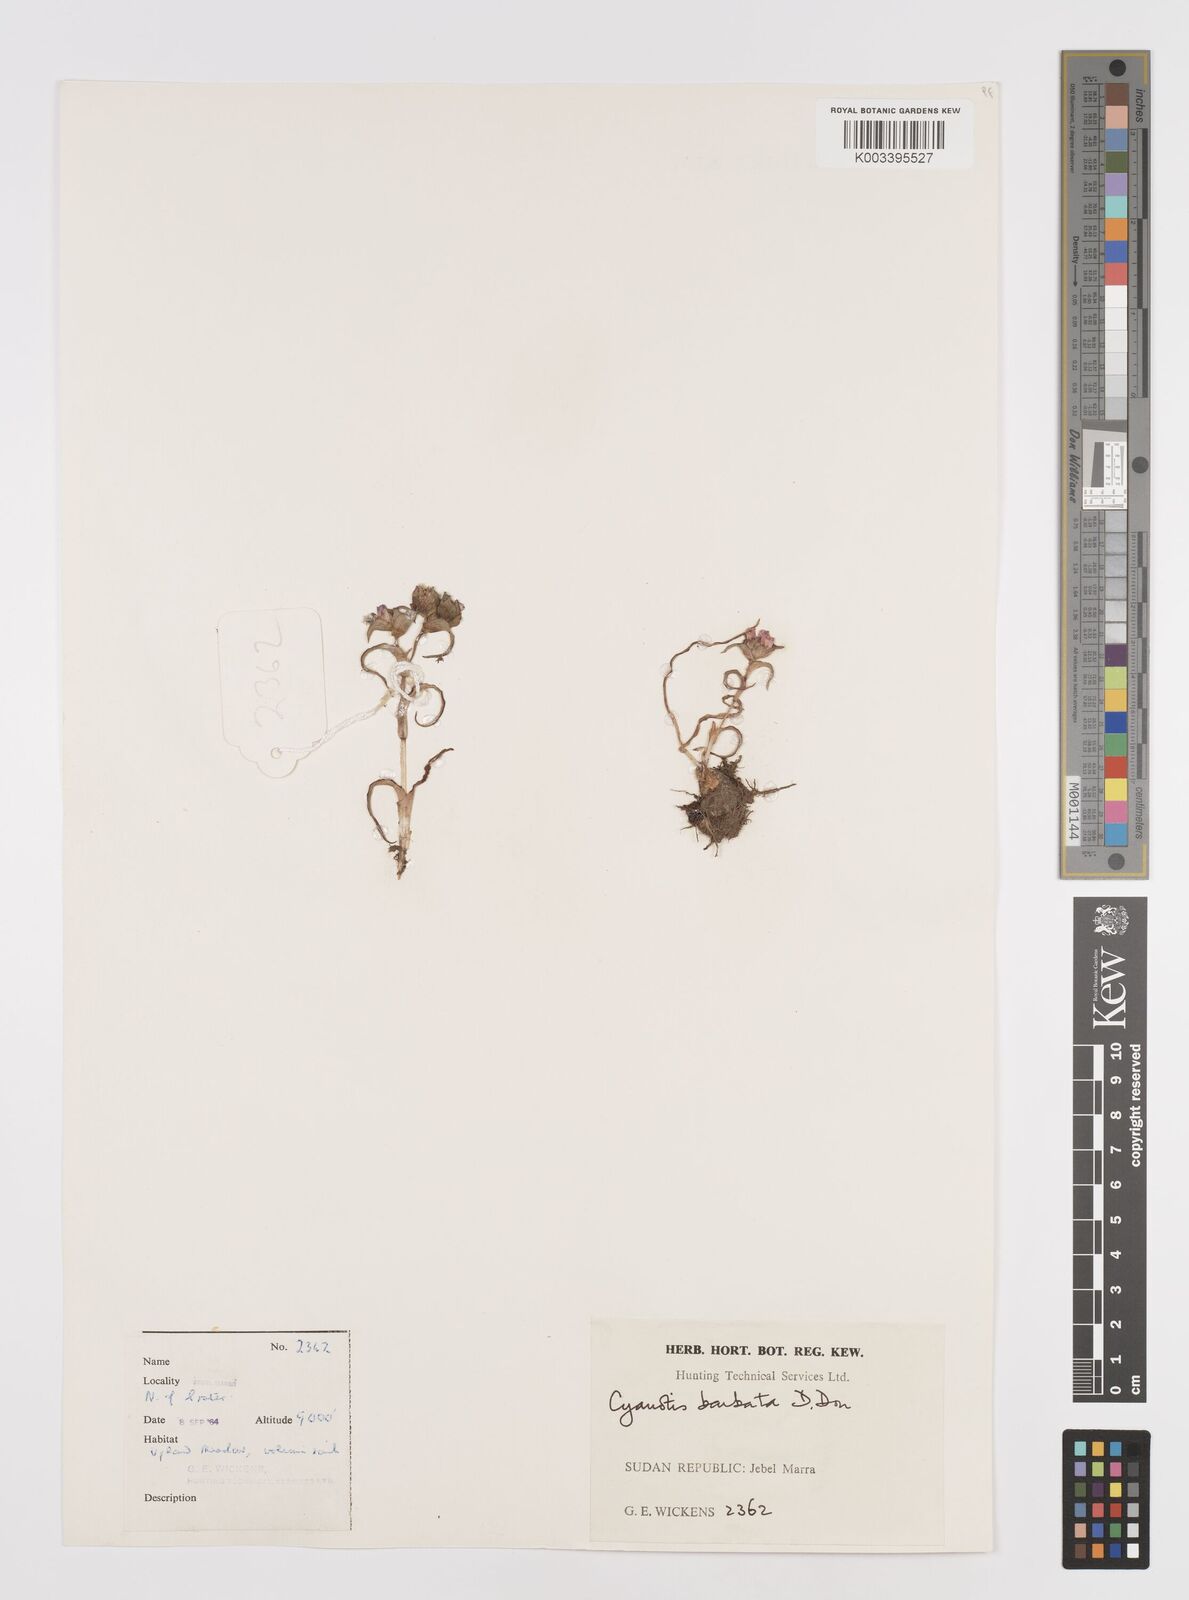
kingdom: Plantae
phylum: Tracheophyta
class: Liliopsida
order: Commelinales
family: Commelinaceae
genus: Cyanotis
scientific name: Cyanotis vaga
